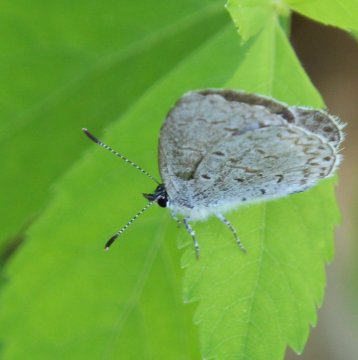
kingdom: Animalia
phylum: Arthropoda
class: Insecta
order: Lepidoptera
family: Lycaenidae
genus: Celastrina
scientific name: Celastrina serotina
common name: Cherry Gall Azure
